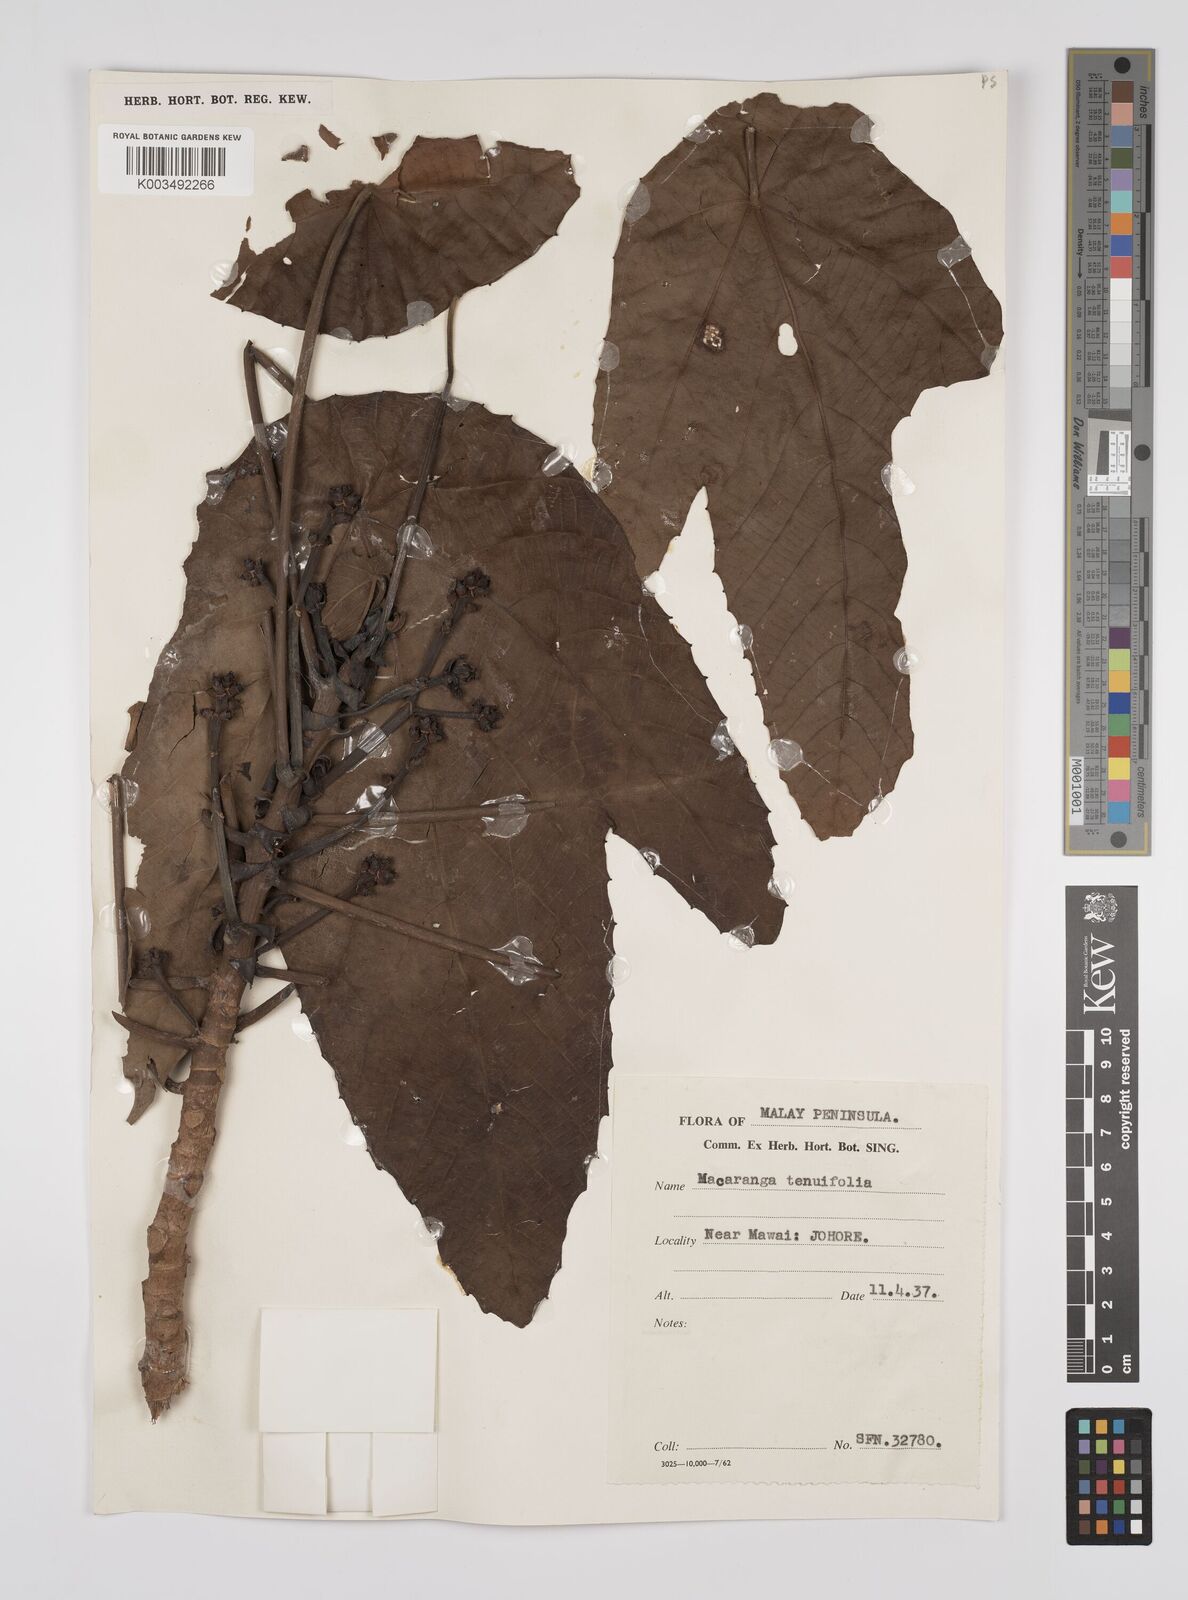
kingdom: Plantae
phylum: Tracheophyta
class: Magnoliopsida
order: Malpighiales
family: Euphorbiaceae
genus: Macaranga
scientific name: Macaranga triloba
